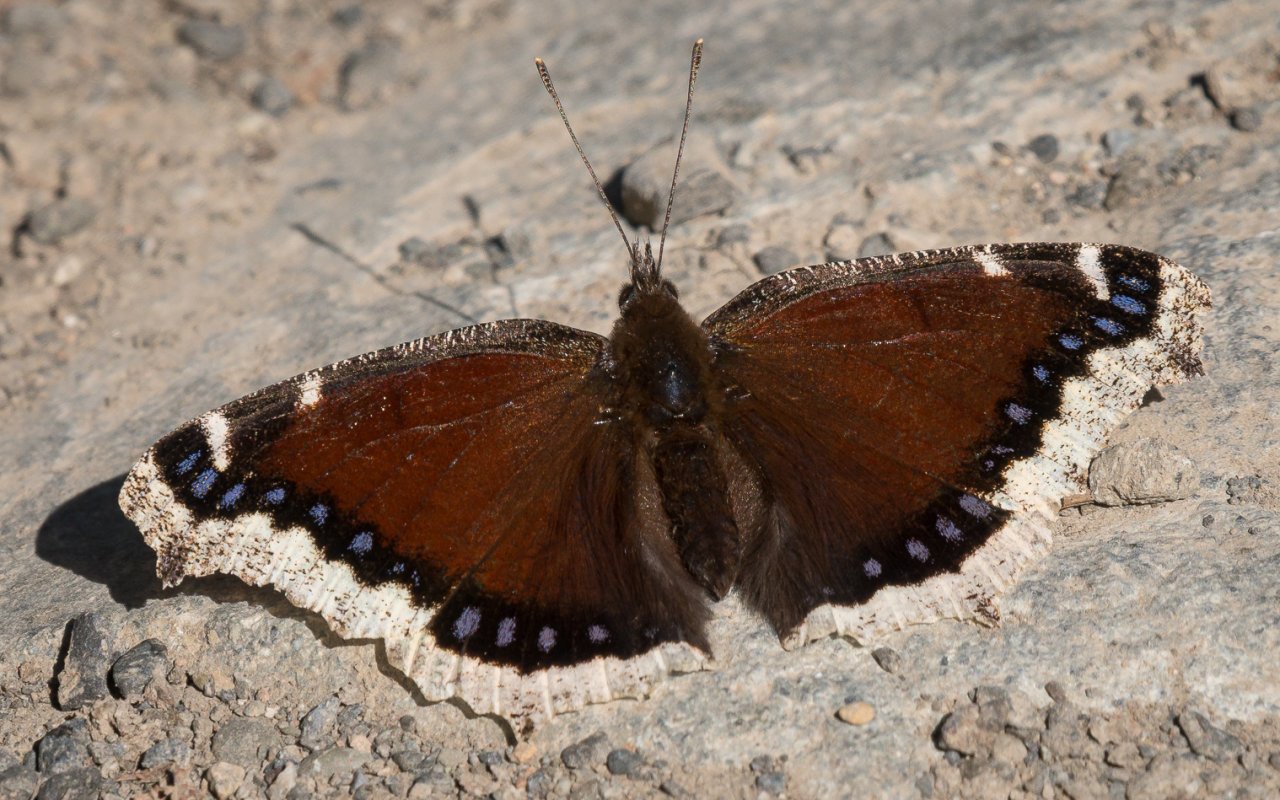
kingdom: Animalia
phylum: Arthropoda
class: Insecta
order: Lepidoptera
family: Nymphalidae
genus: Nymphalis
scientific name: Nymphalis antiopa
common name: Mourning Cloak
